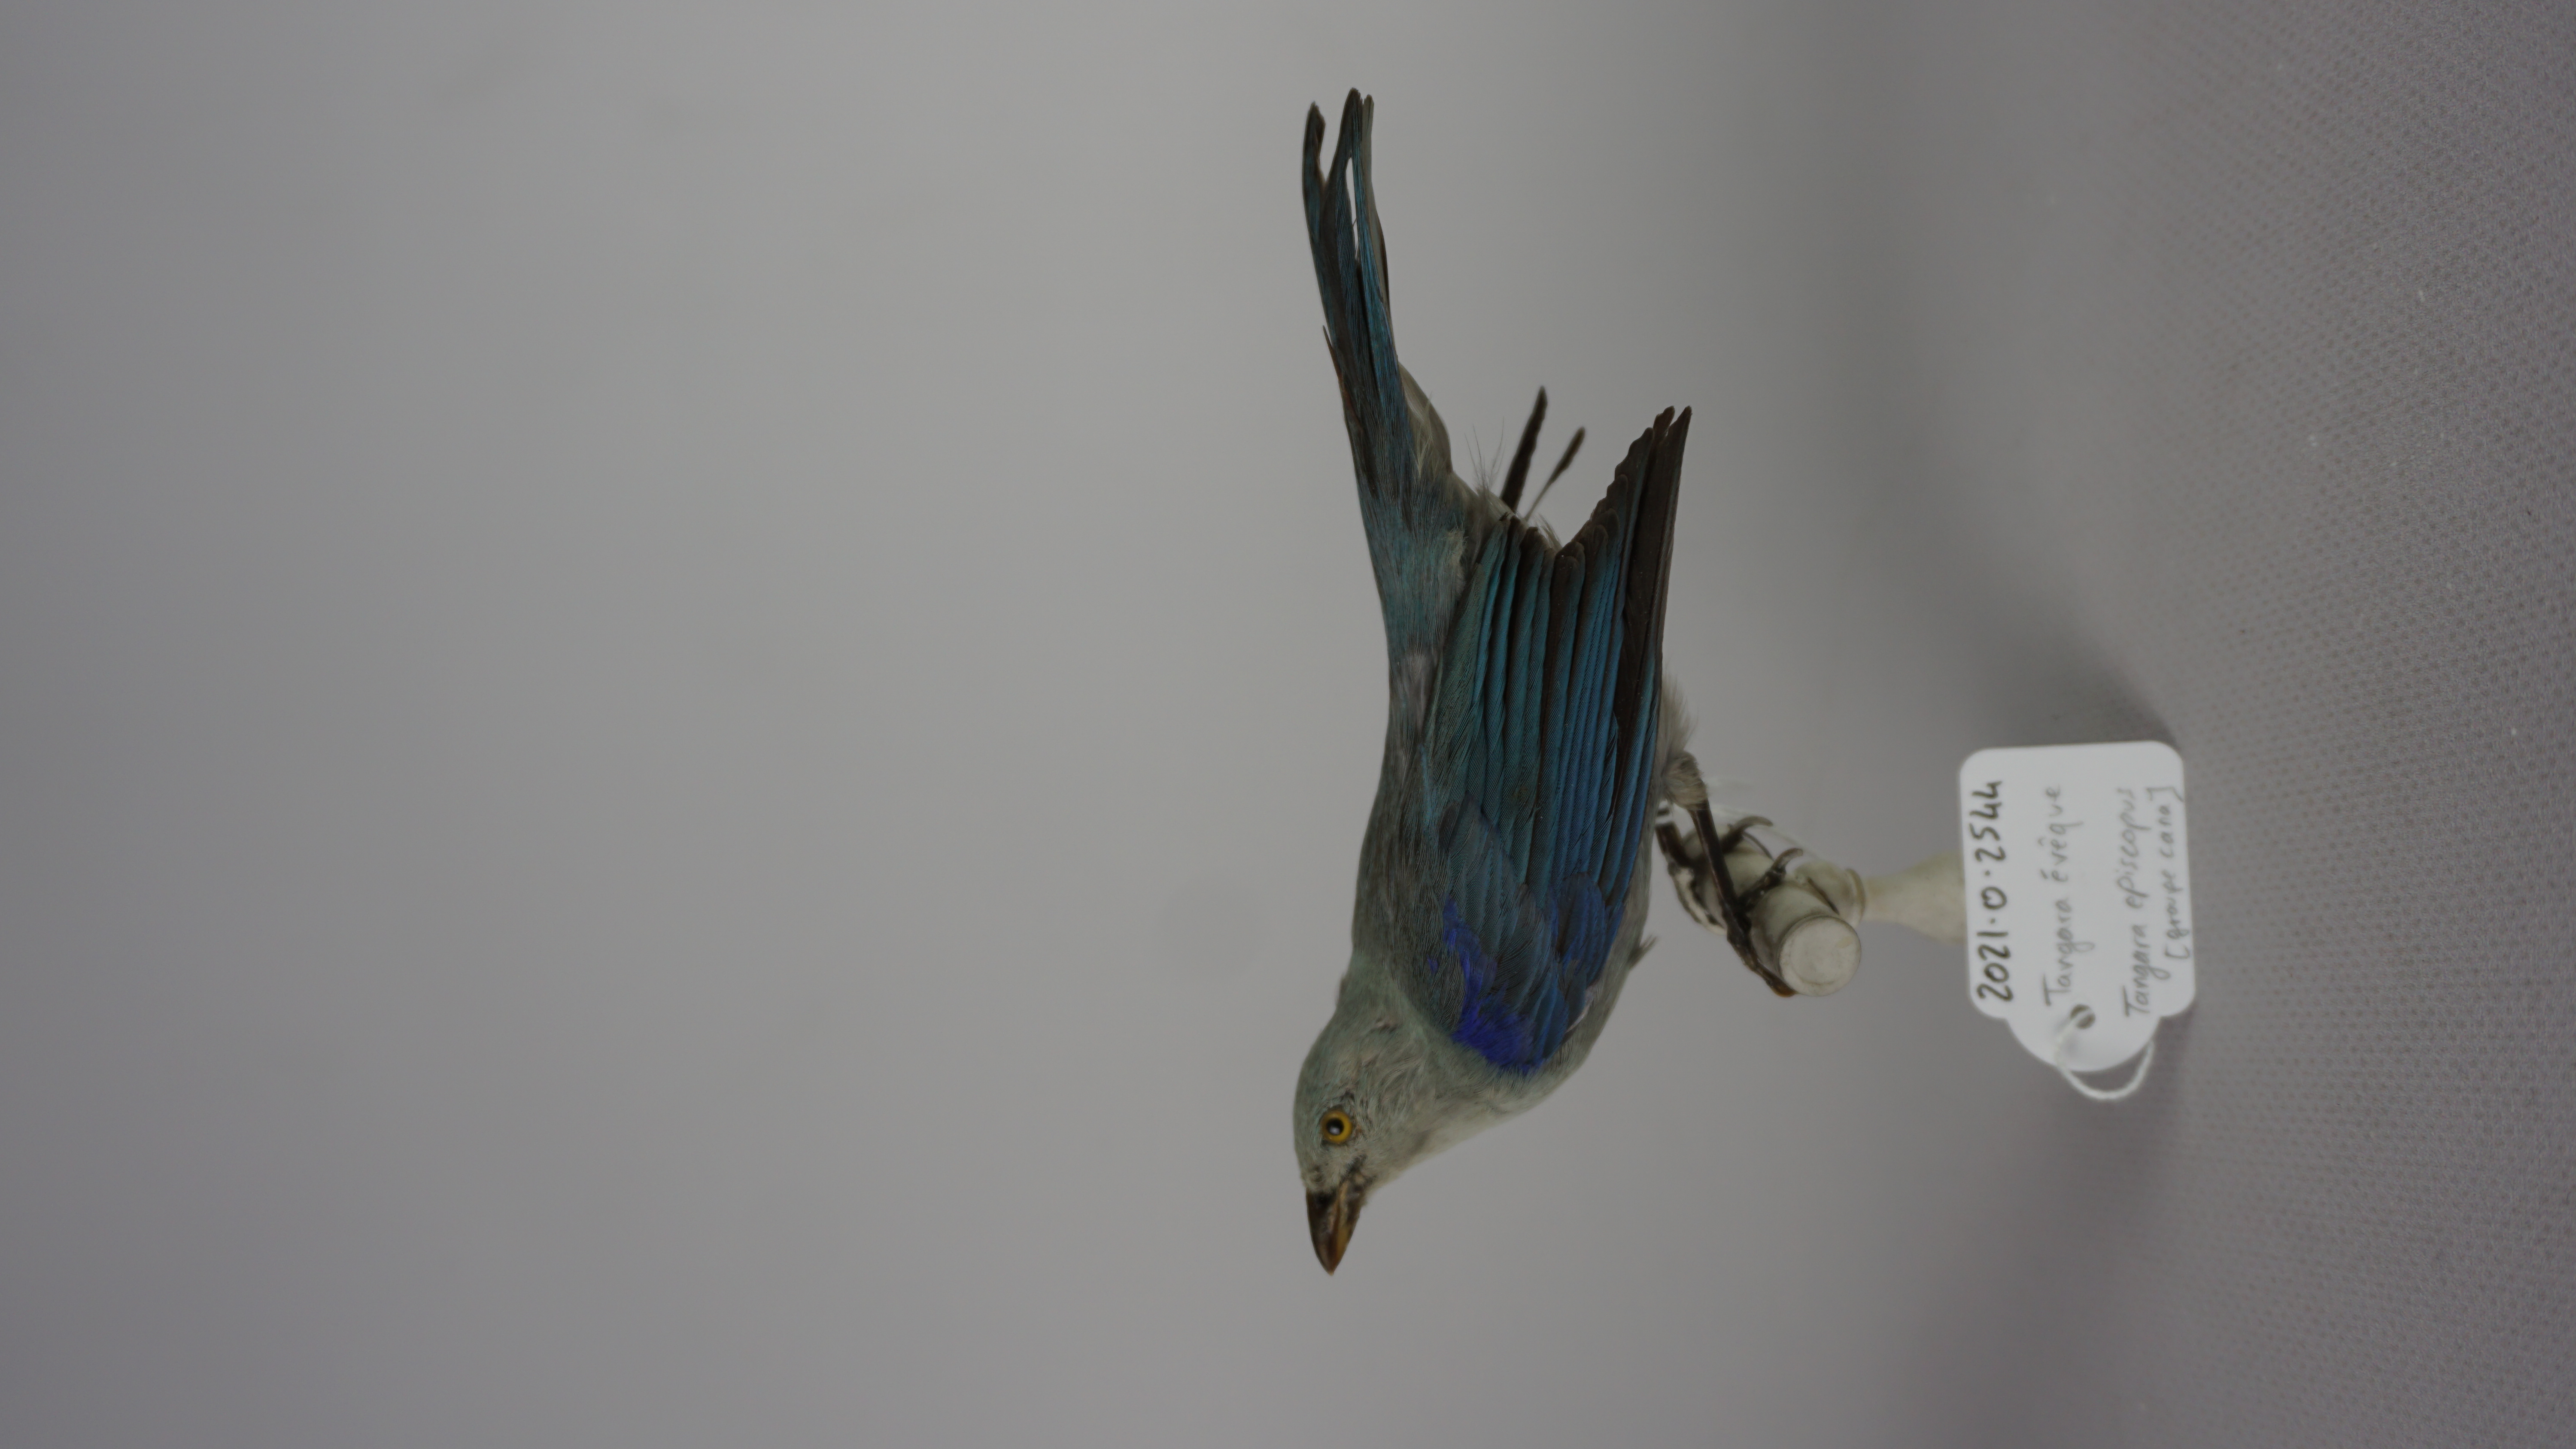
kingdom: Animalia
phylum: Chordata
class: Aves
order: Passeriformes
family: Thraupidae
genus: Thraupis
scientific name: Thraupis episcopus
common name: Blue-grey tanager
